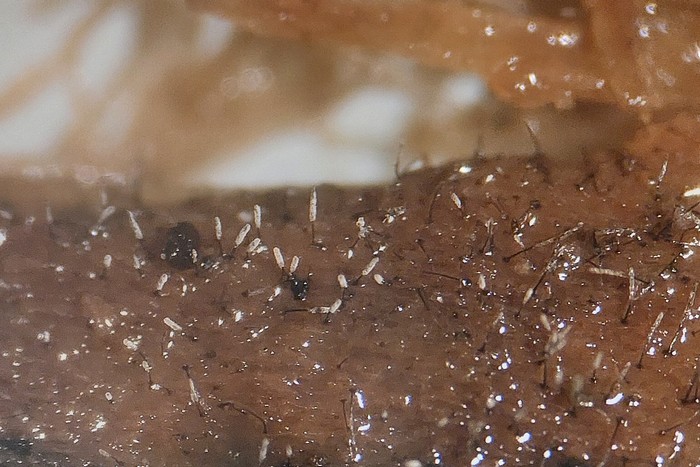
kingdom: Fungi
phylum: Ascomycota
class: Sordariomycetes
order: Microascales
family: Microascaceae
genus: Cephalotrichum
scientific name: Cephalotrichum stemonitis
